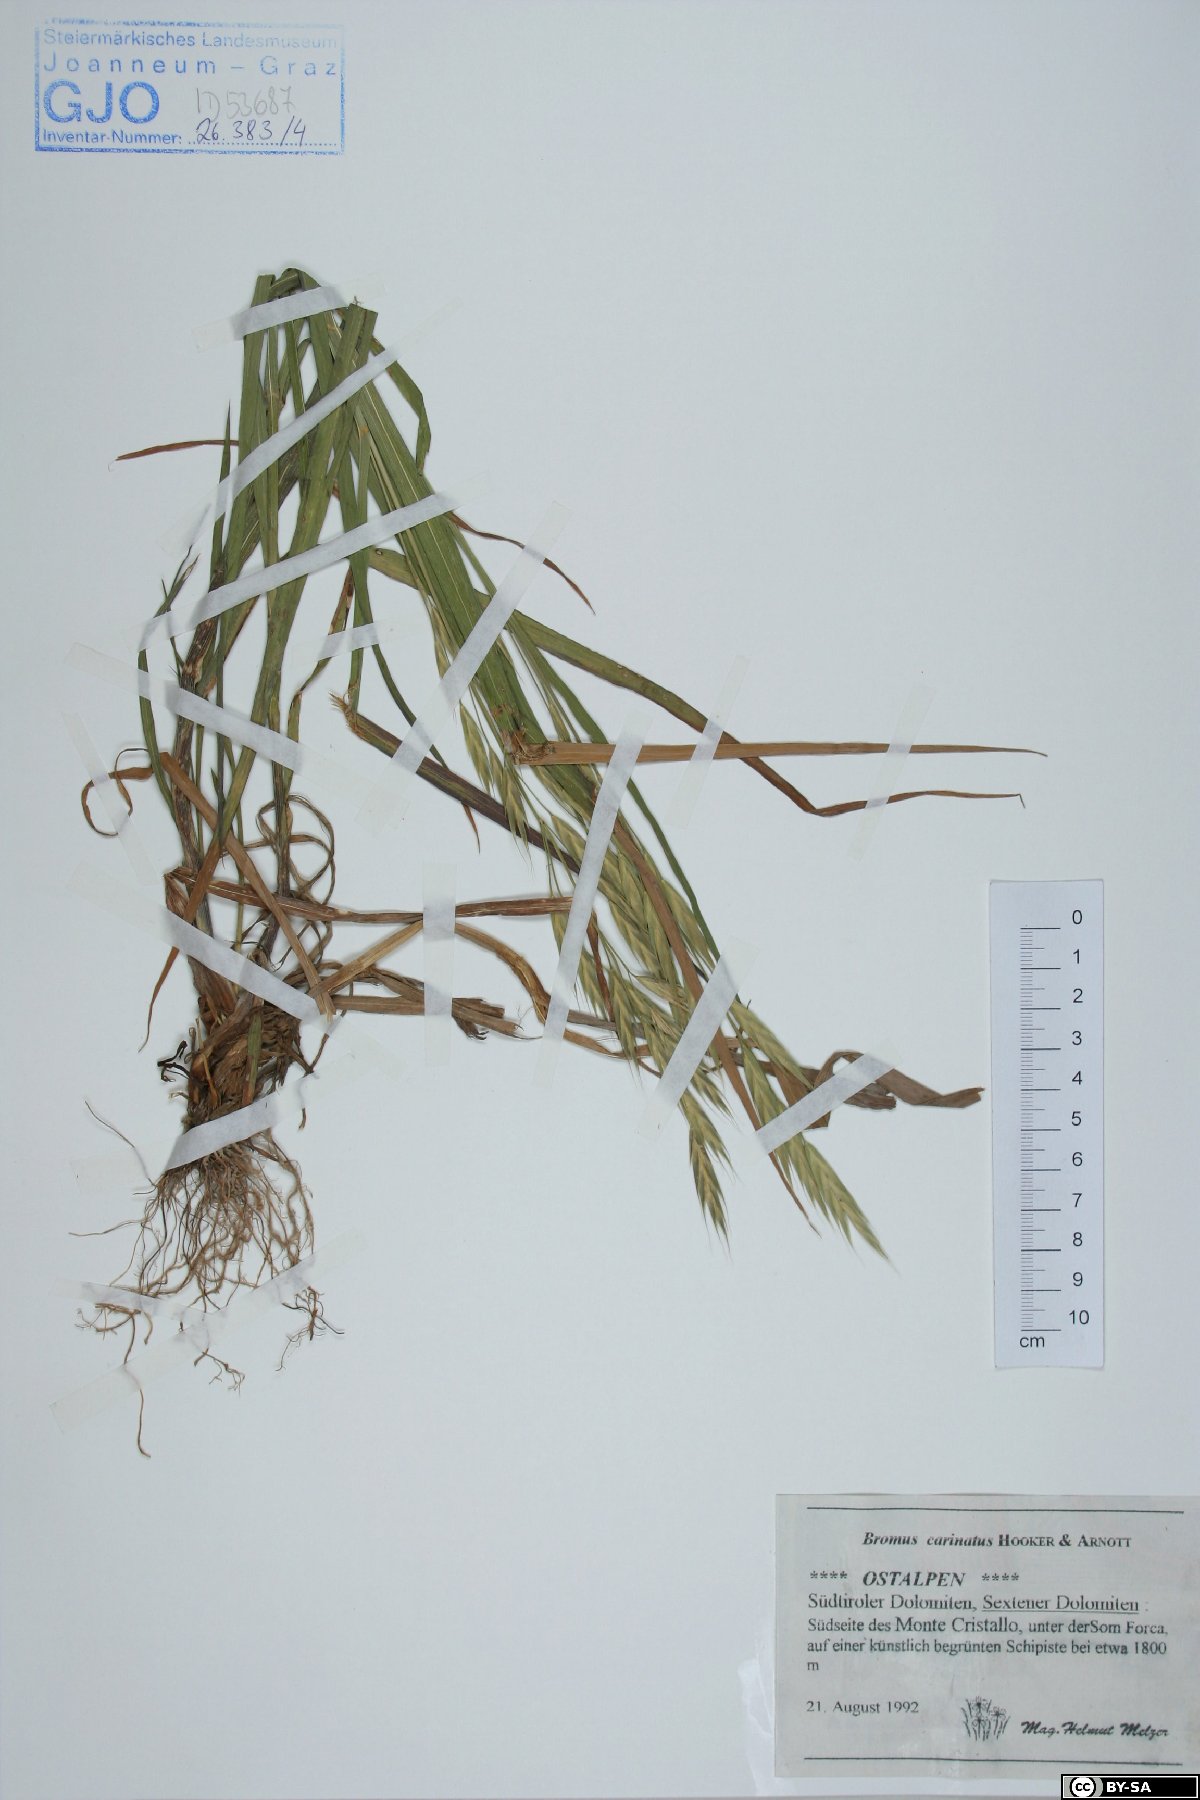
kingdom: Plantae
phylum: Tracheophyta
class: Liliopsida
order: Poales
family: Poaceae
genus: Bromus
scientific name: Bromus carinatus
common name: Mountain brome
